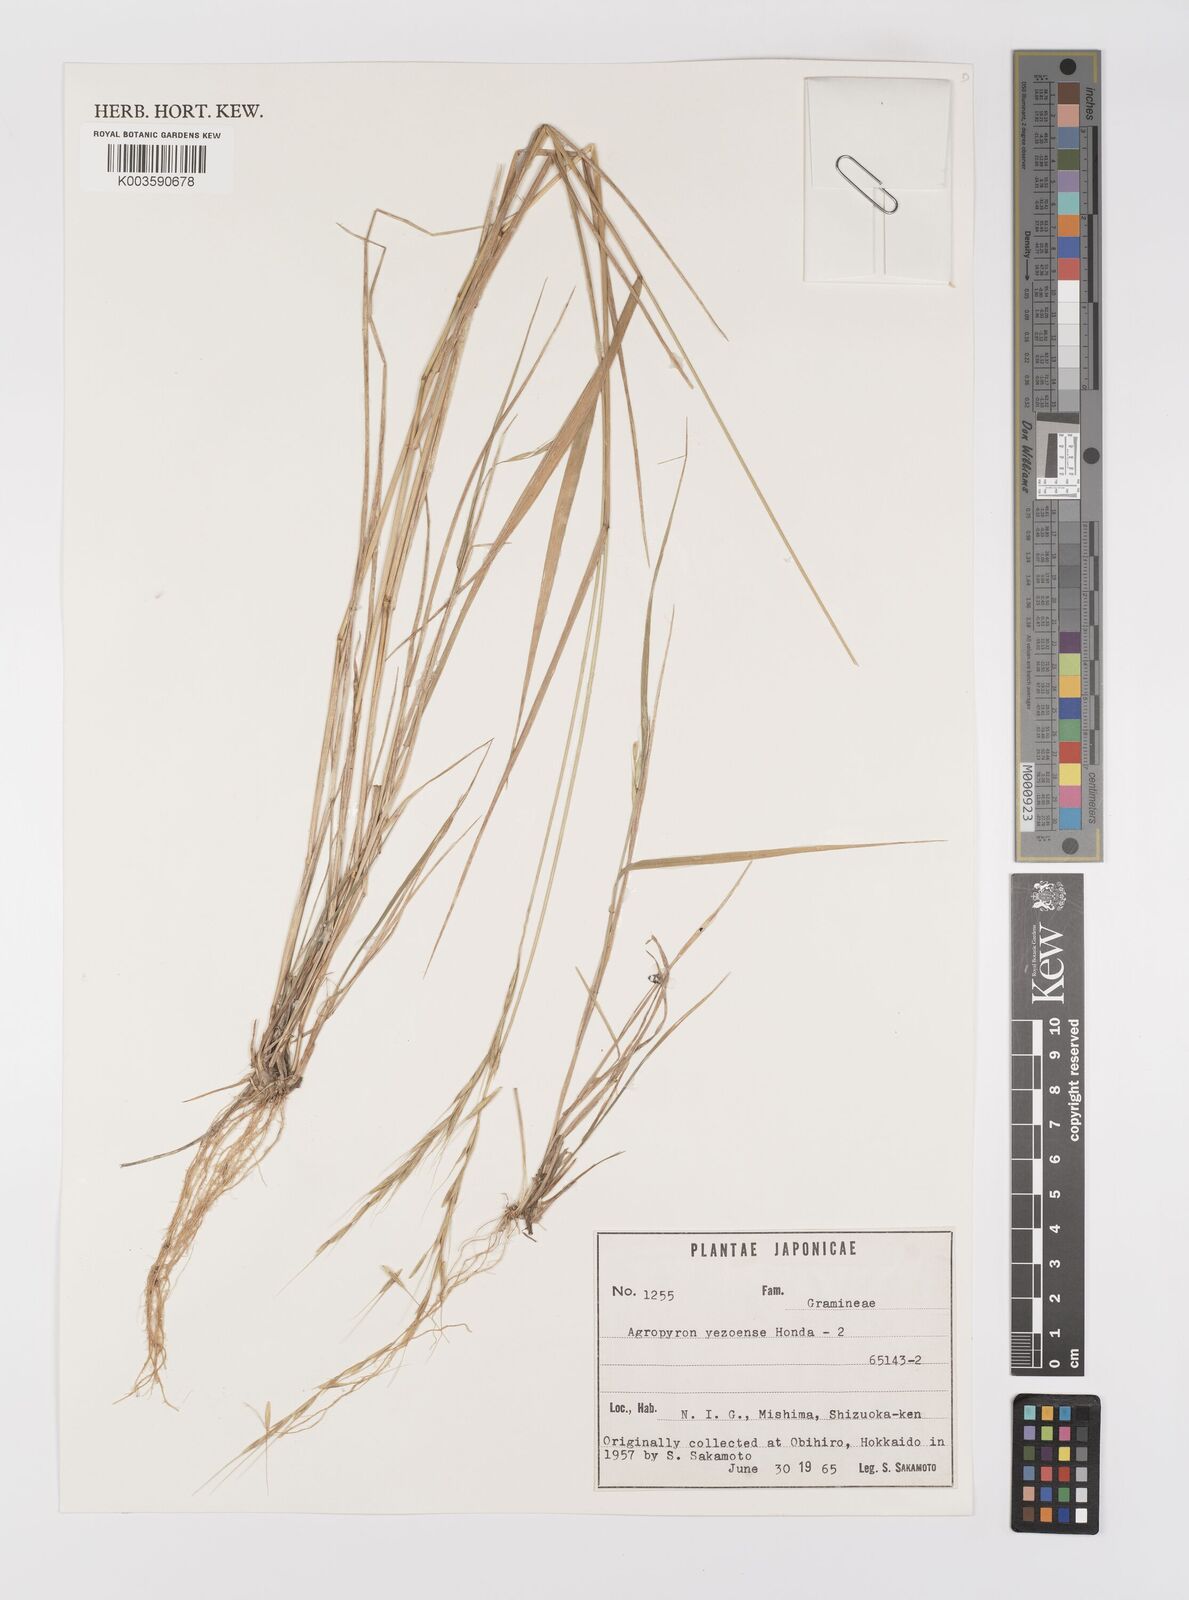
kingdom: Plantae
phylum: Tracheophyta
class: Liliopsida
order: Poales
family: Poaceae
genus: Elymus
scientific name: Elymus nipponicus
